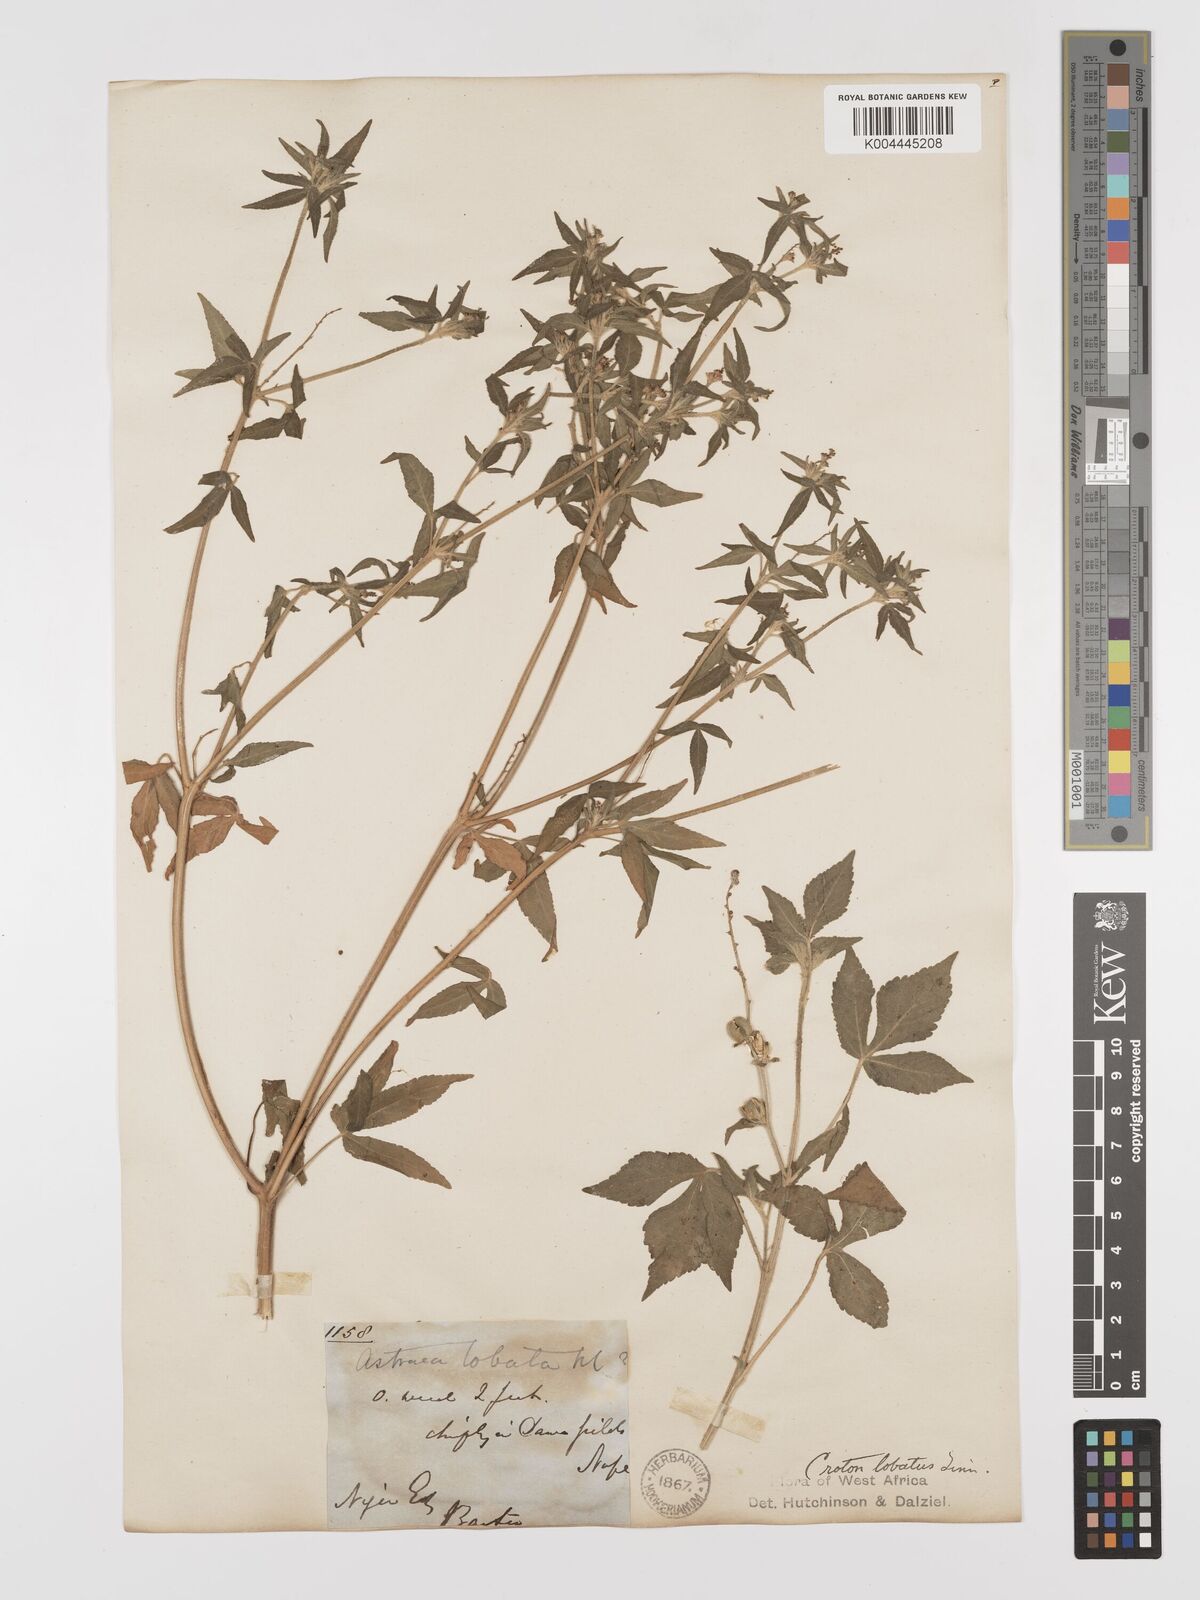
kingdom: Plantae
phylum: Tracheophyta
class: Magnoliopsida
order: Malpighiales
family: Euphorbiaceae
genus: Astraea
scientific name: Astraea lobata
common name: Lobed croton
